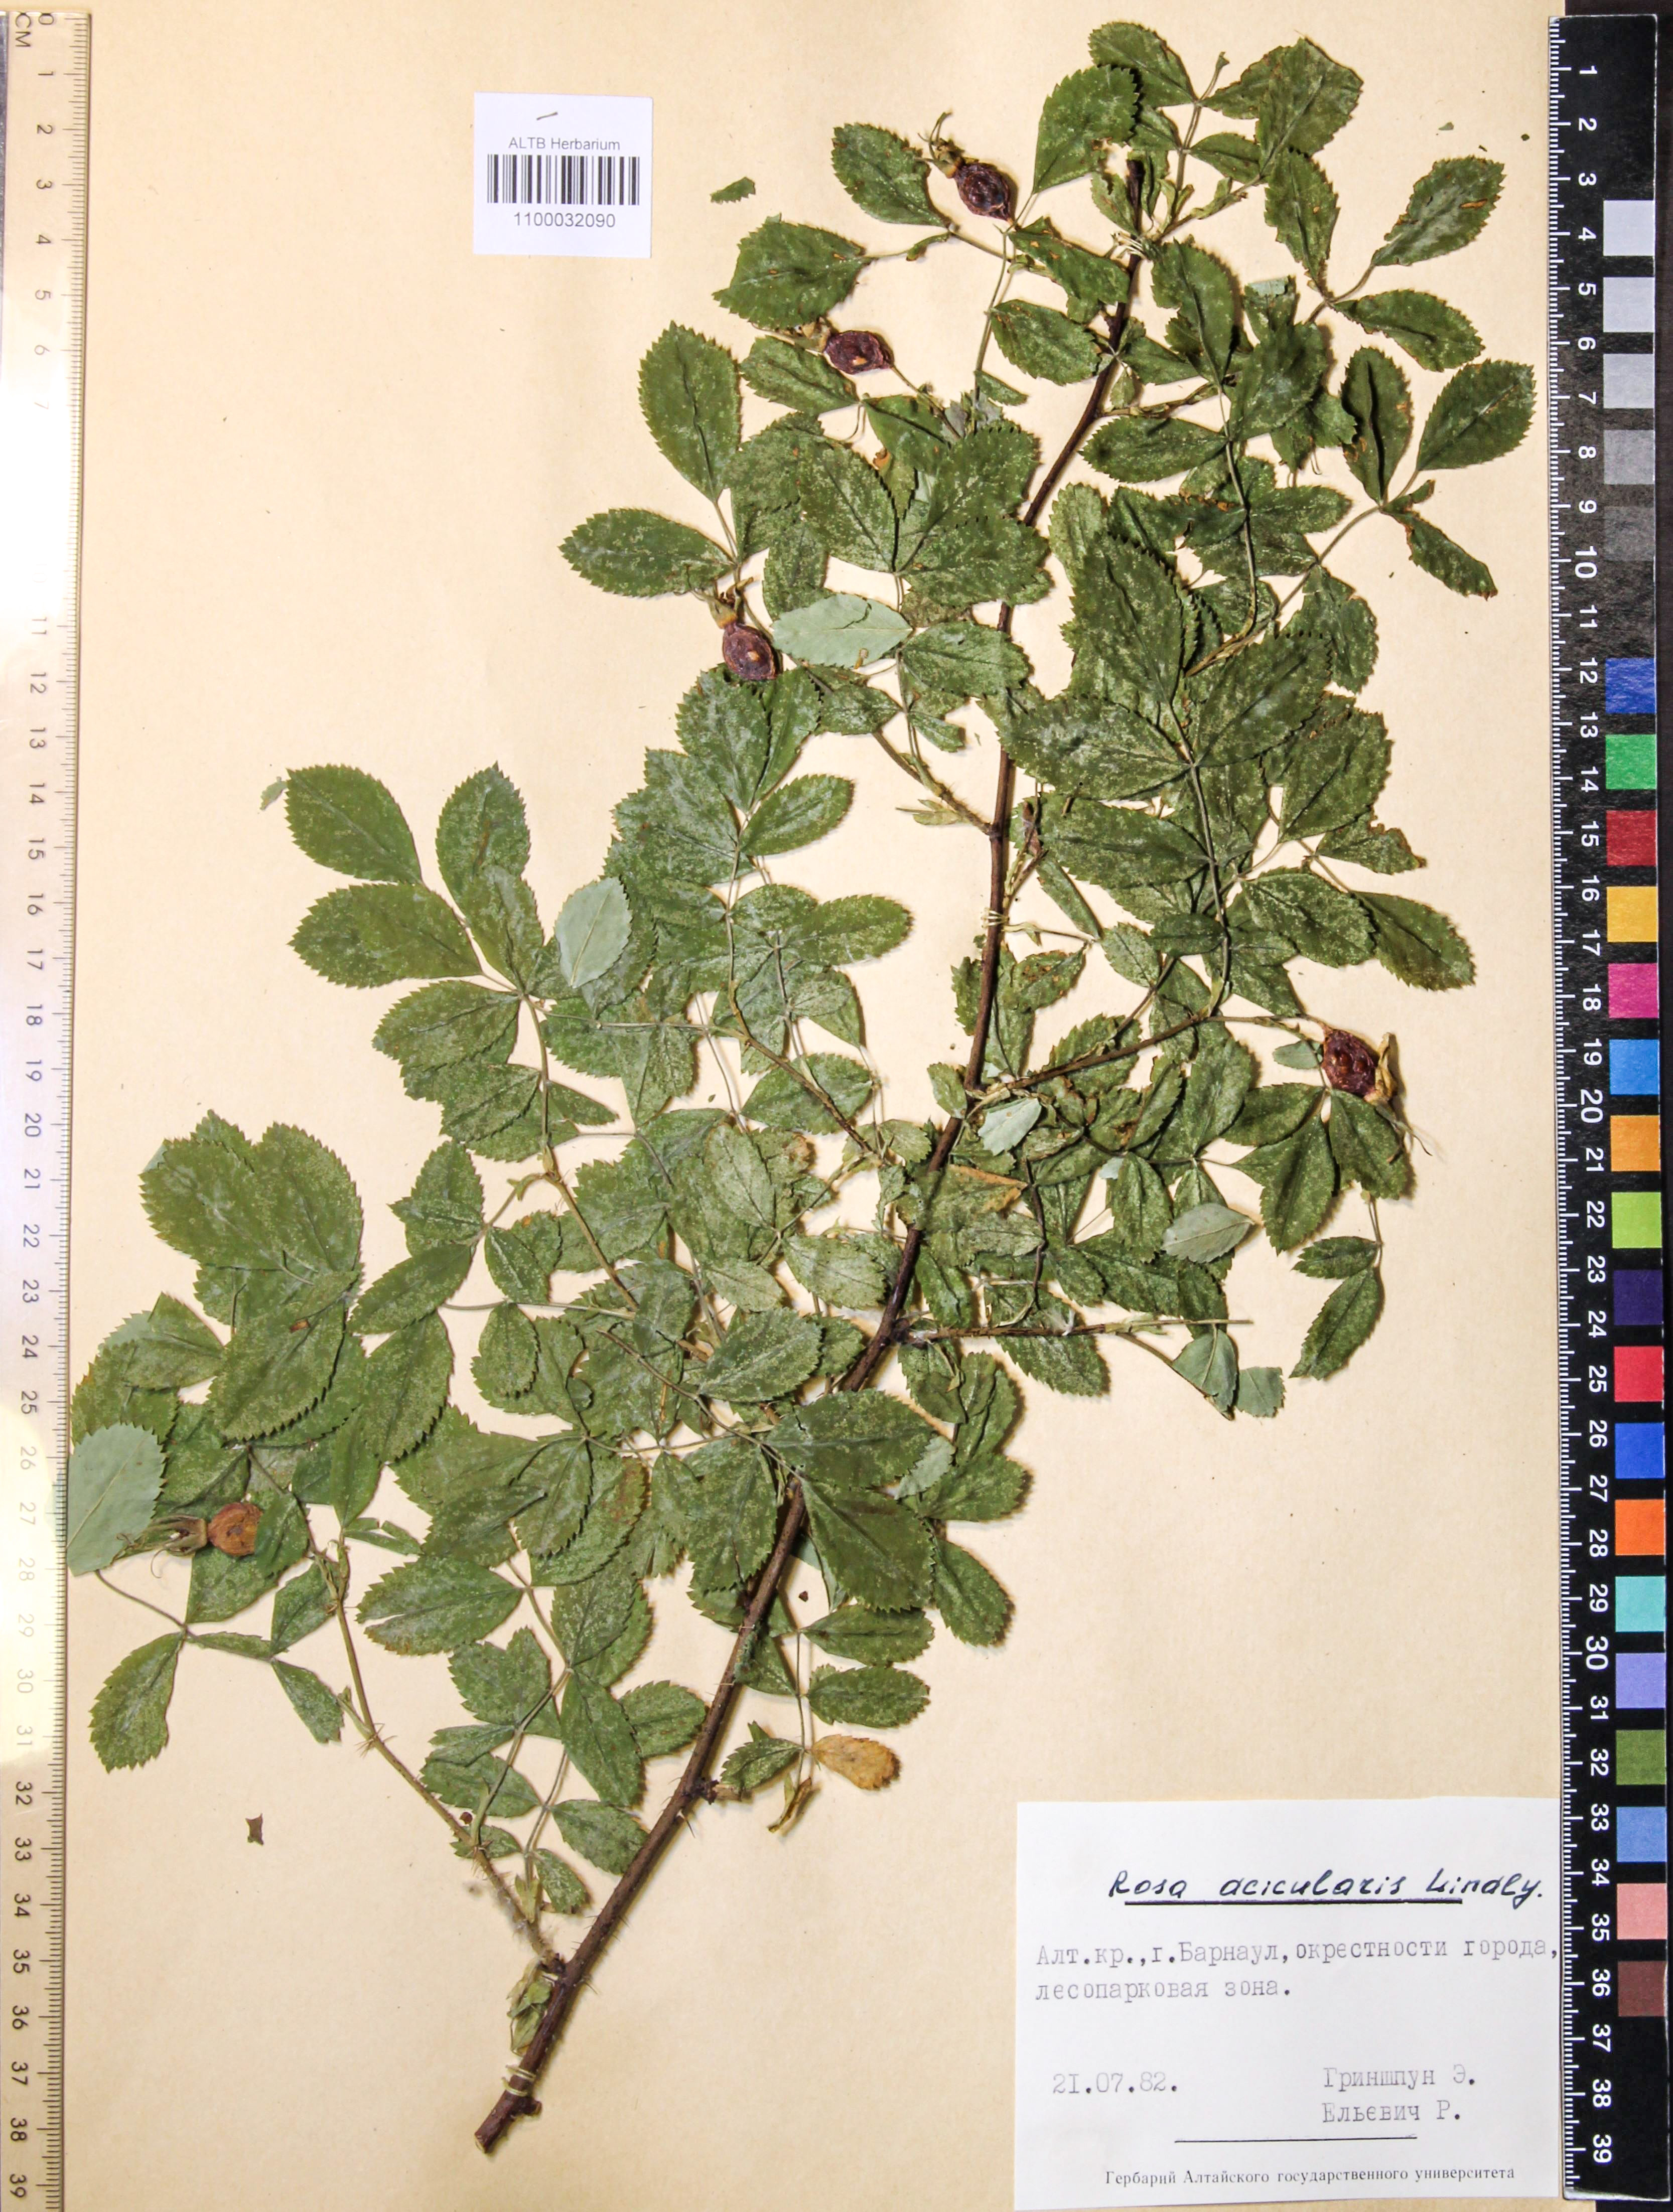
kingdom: Plantae
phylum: Tracheophyta
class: Magnoliopsida
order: Rosales
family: Rosaceae
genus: Rosa
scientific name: Rosa acicularis
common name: Prickly rose
